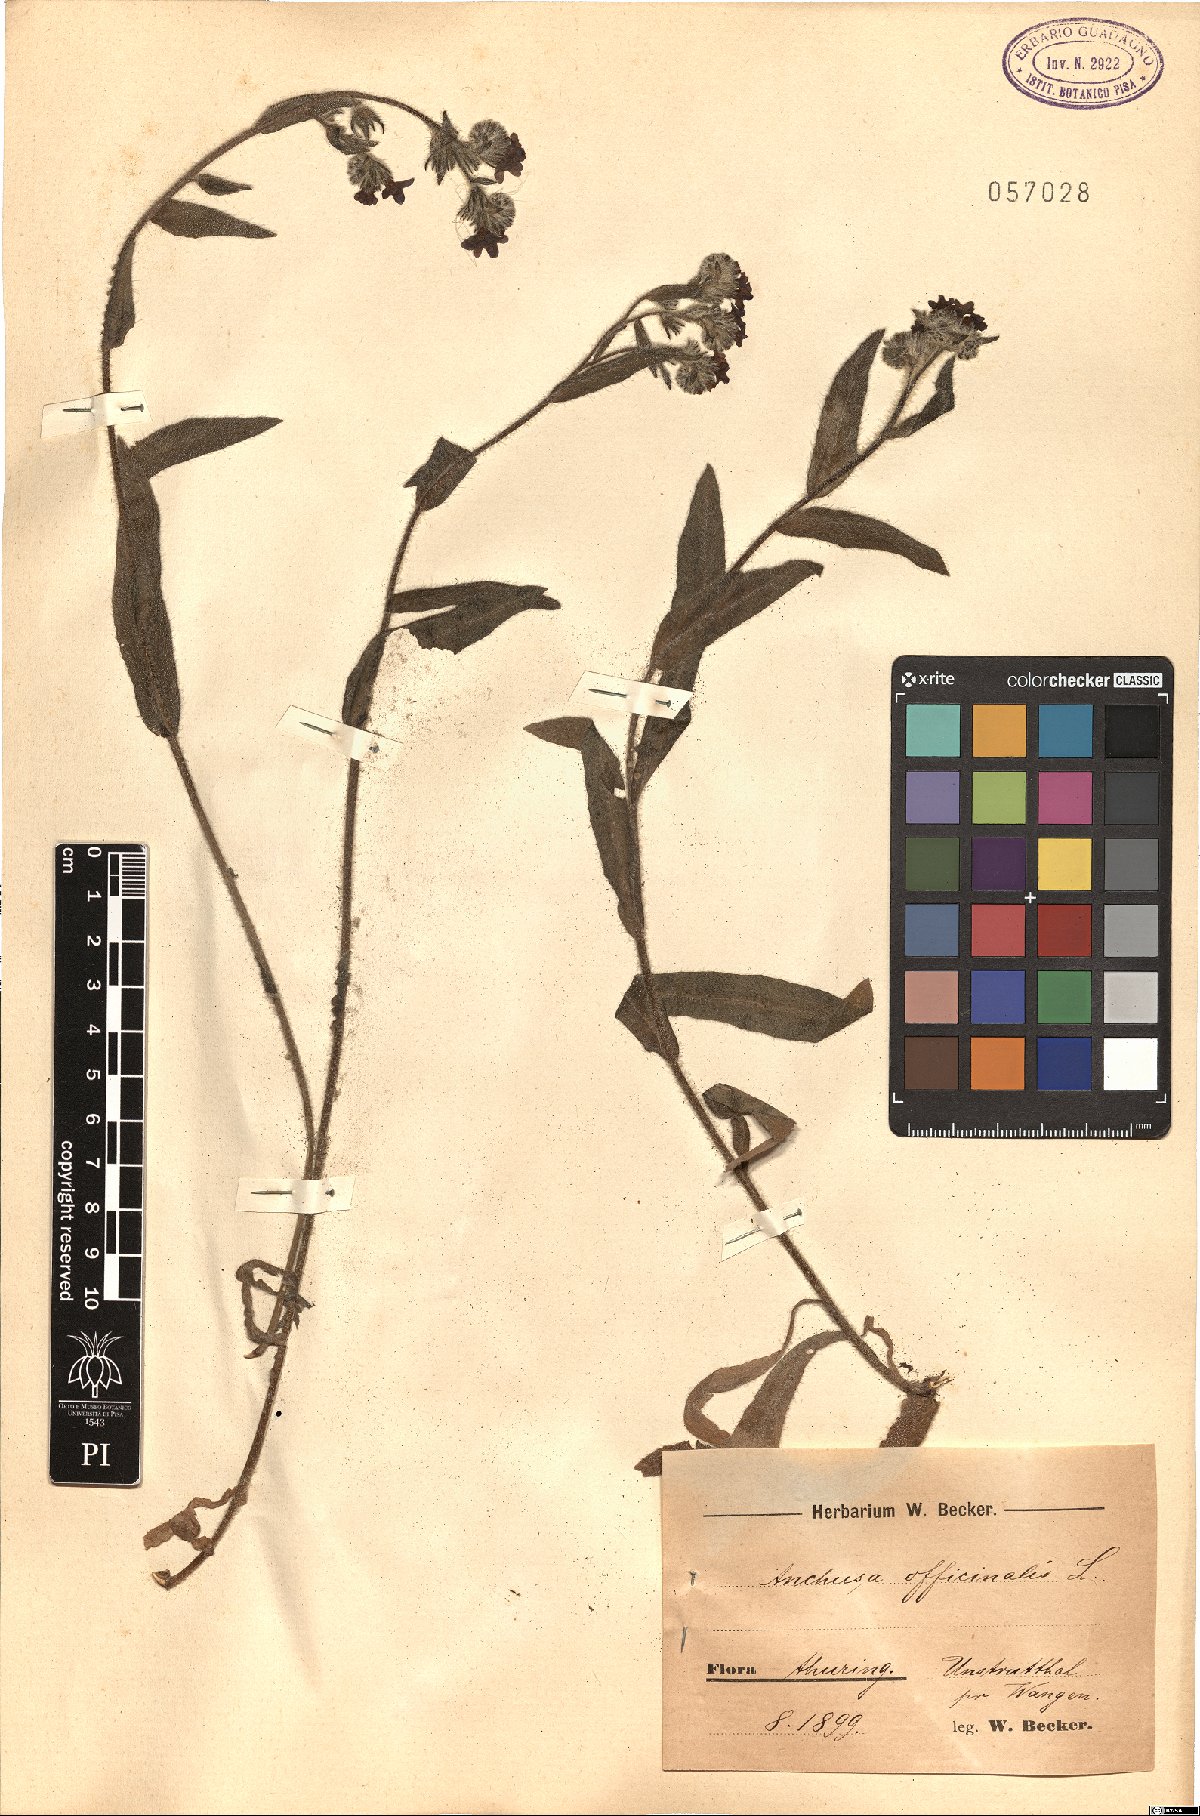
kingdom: Plantae
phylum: Tracheophyta
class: Magnoliopsida
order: Boraginales
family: Boraginaceae
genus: Anchusa
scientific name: Anchusa officinalis
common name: Alkanet
